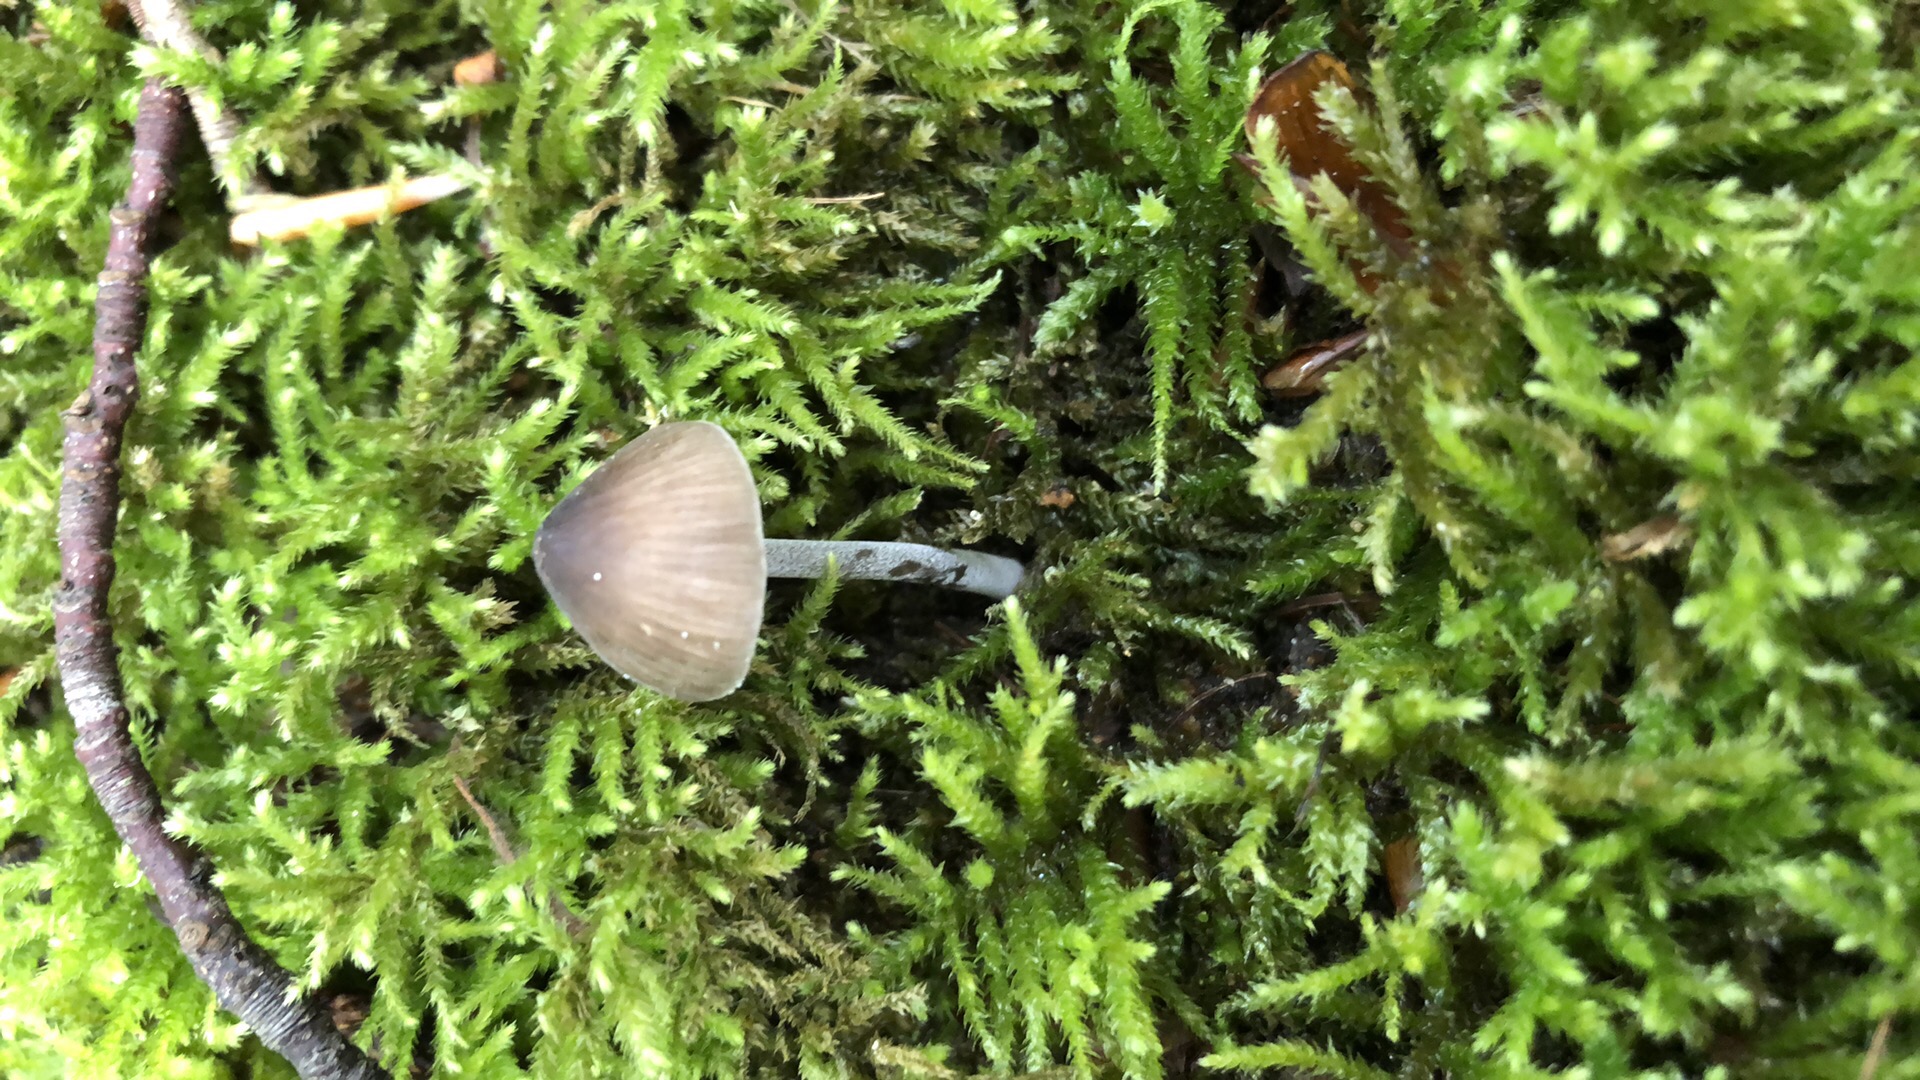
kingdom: Fungi
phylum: Basidiomycota
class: Agaricomycetes
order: Agaricales
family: Tricholomataceae
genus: Mycenella
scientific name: Mycenella bryophila
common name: mos-dughat
